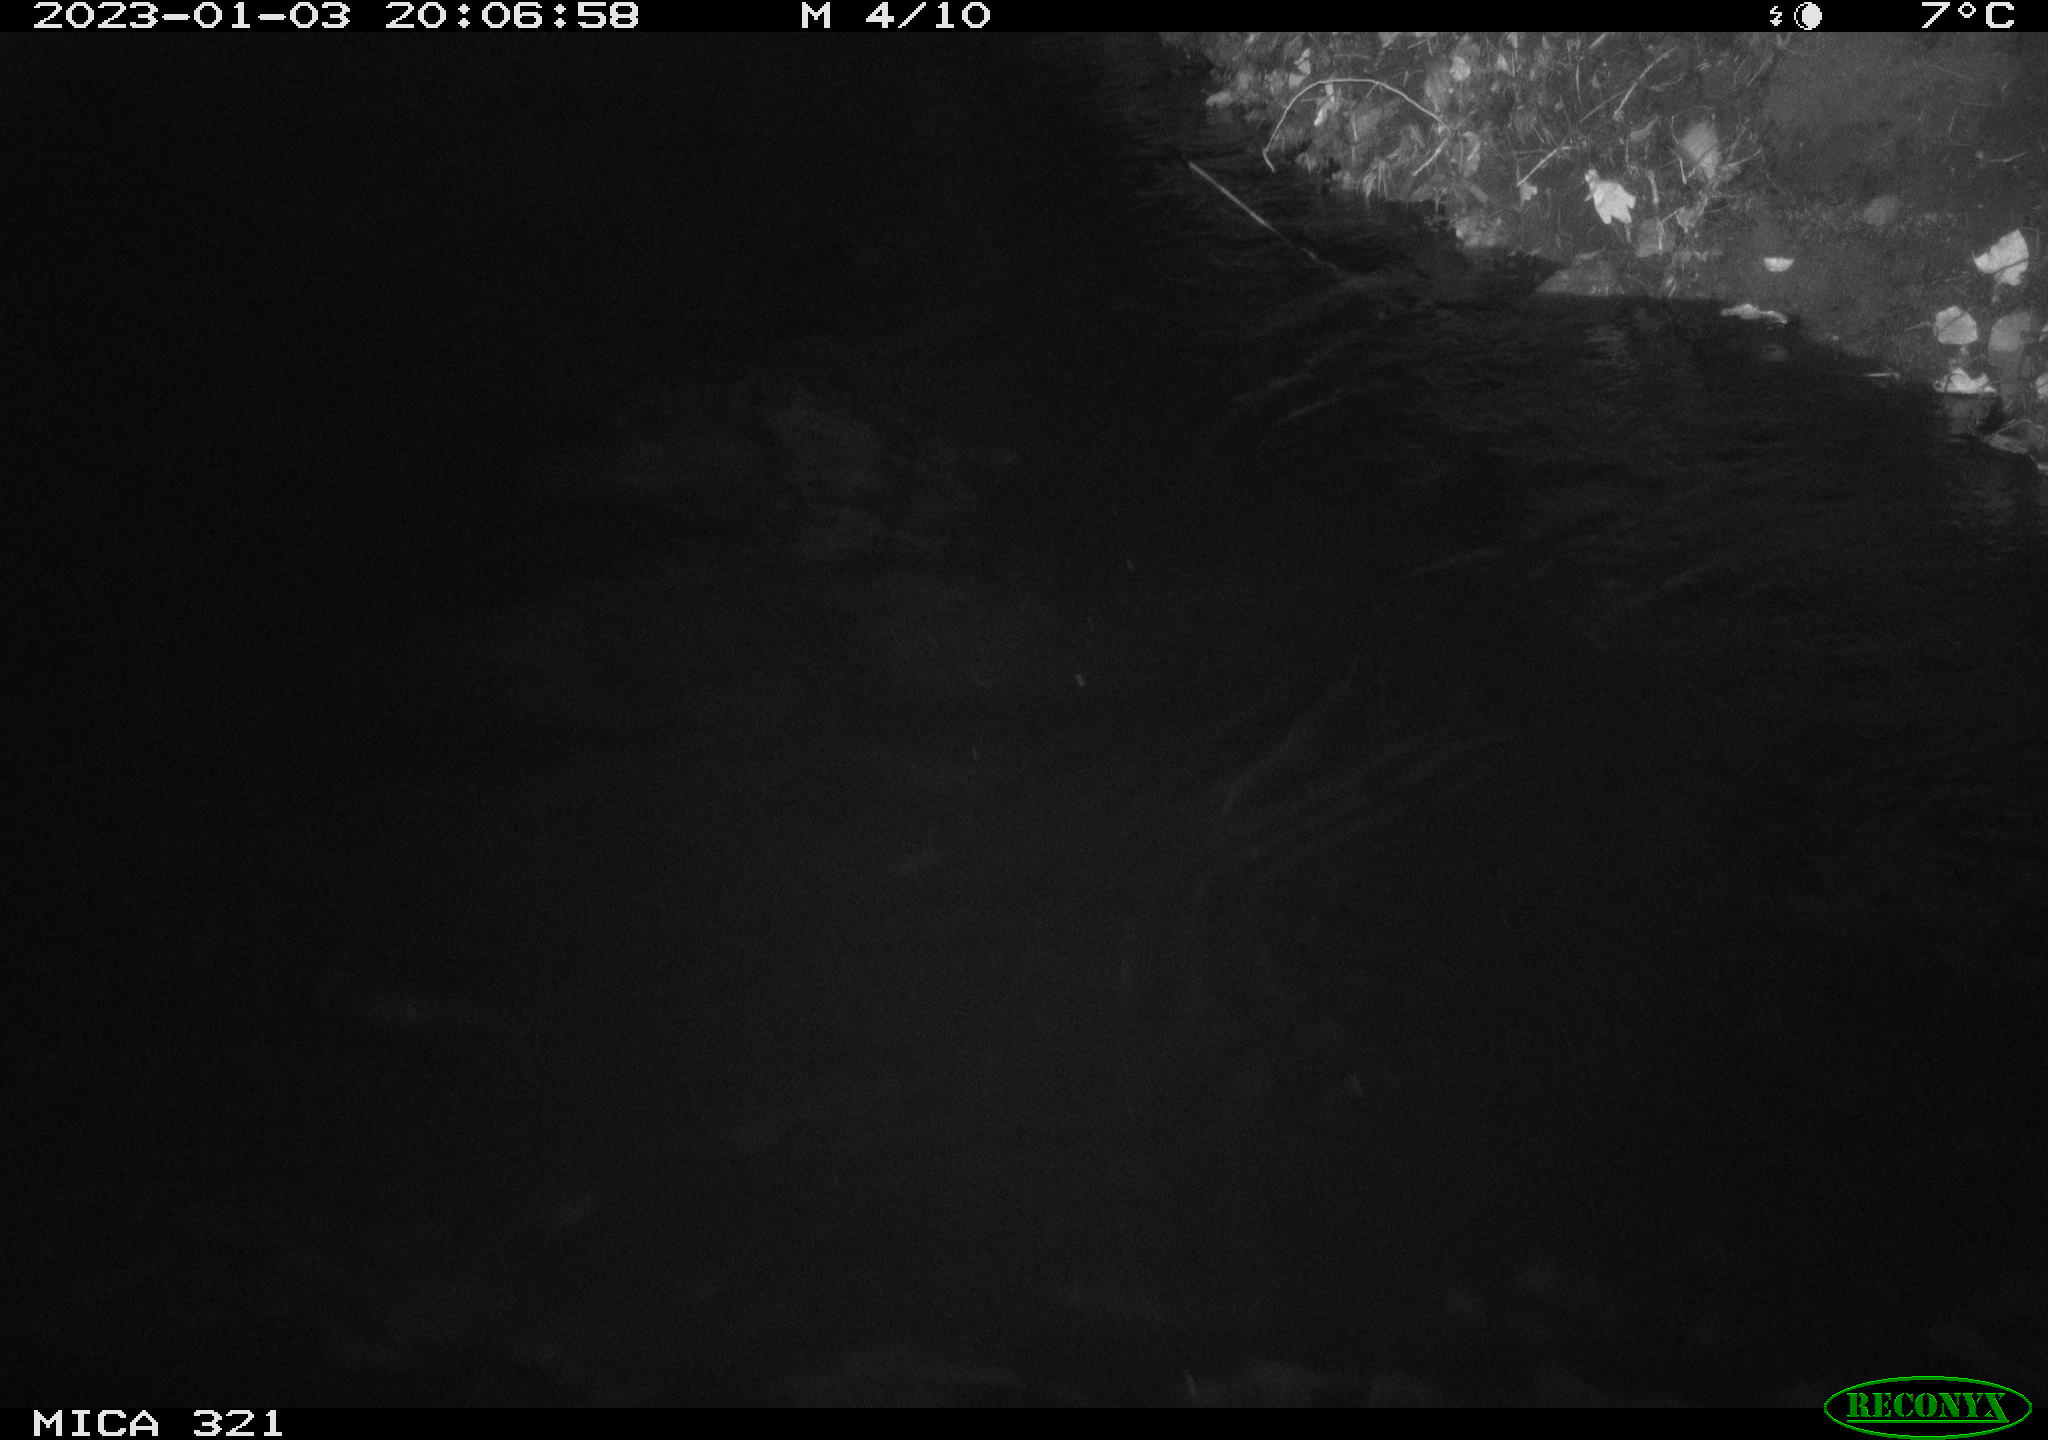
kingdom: Animalia
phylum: Chordata
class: Aves
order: Anseriformes
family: Anatidae
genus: Anas
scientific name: Anas
